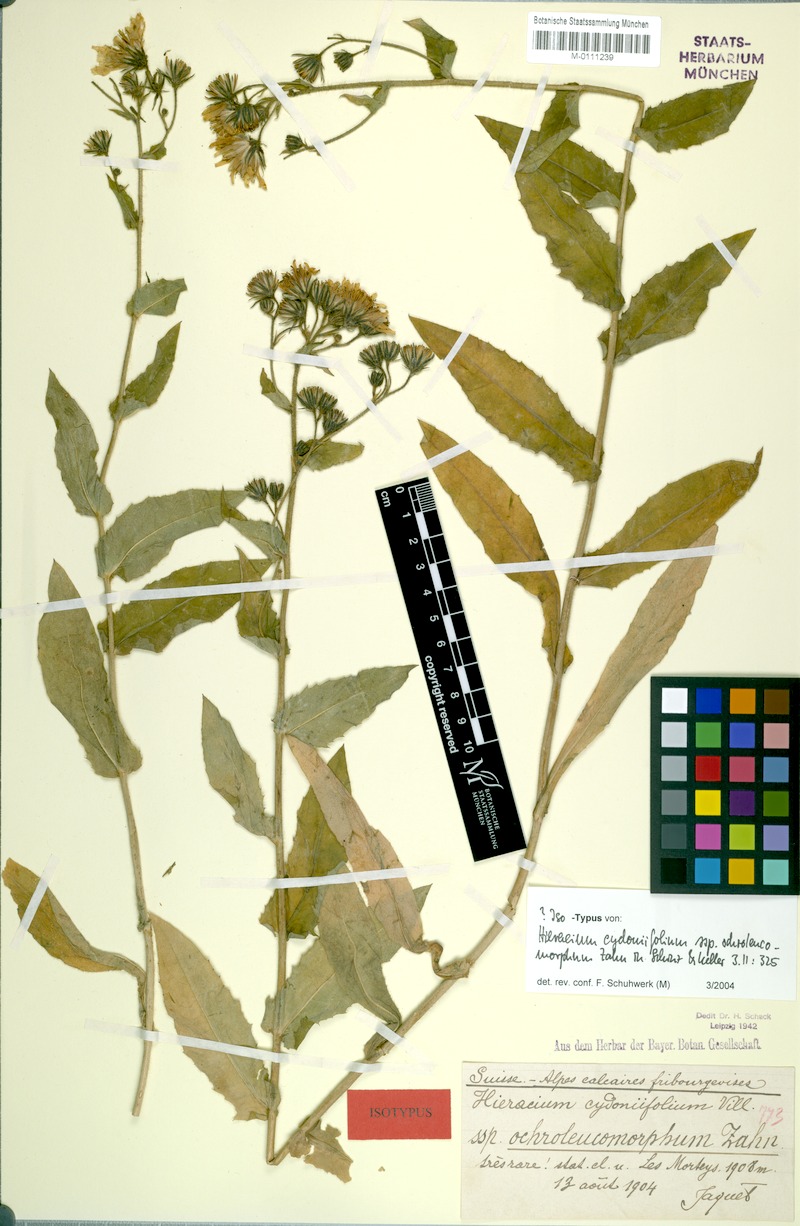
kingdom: Plantae
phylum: Tracheophyta
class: Magnoliopsida
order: Asterales
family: Asteraceae
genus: Hieracium
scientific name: Hieracium cydoniifolium
